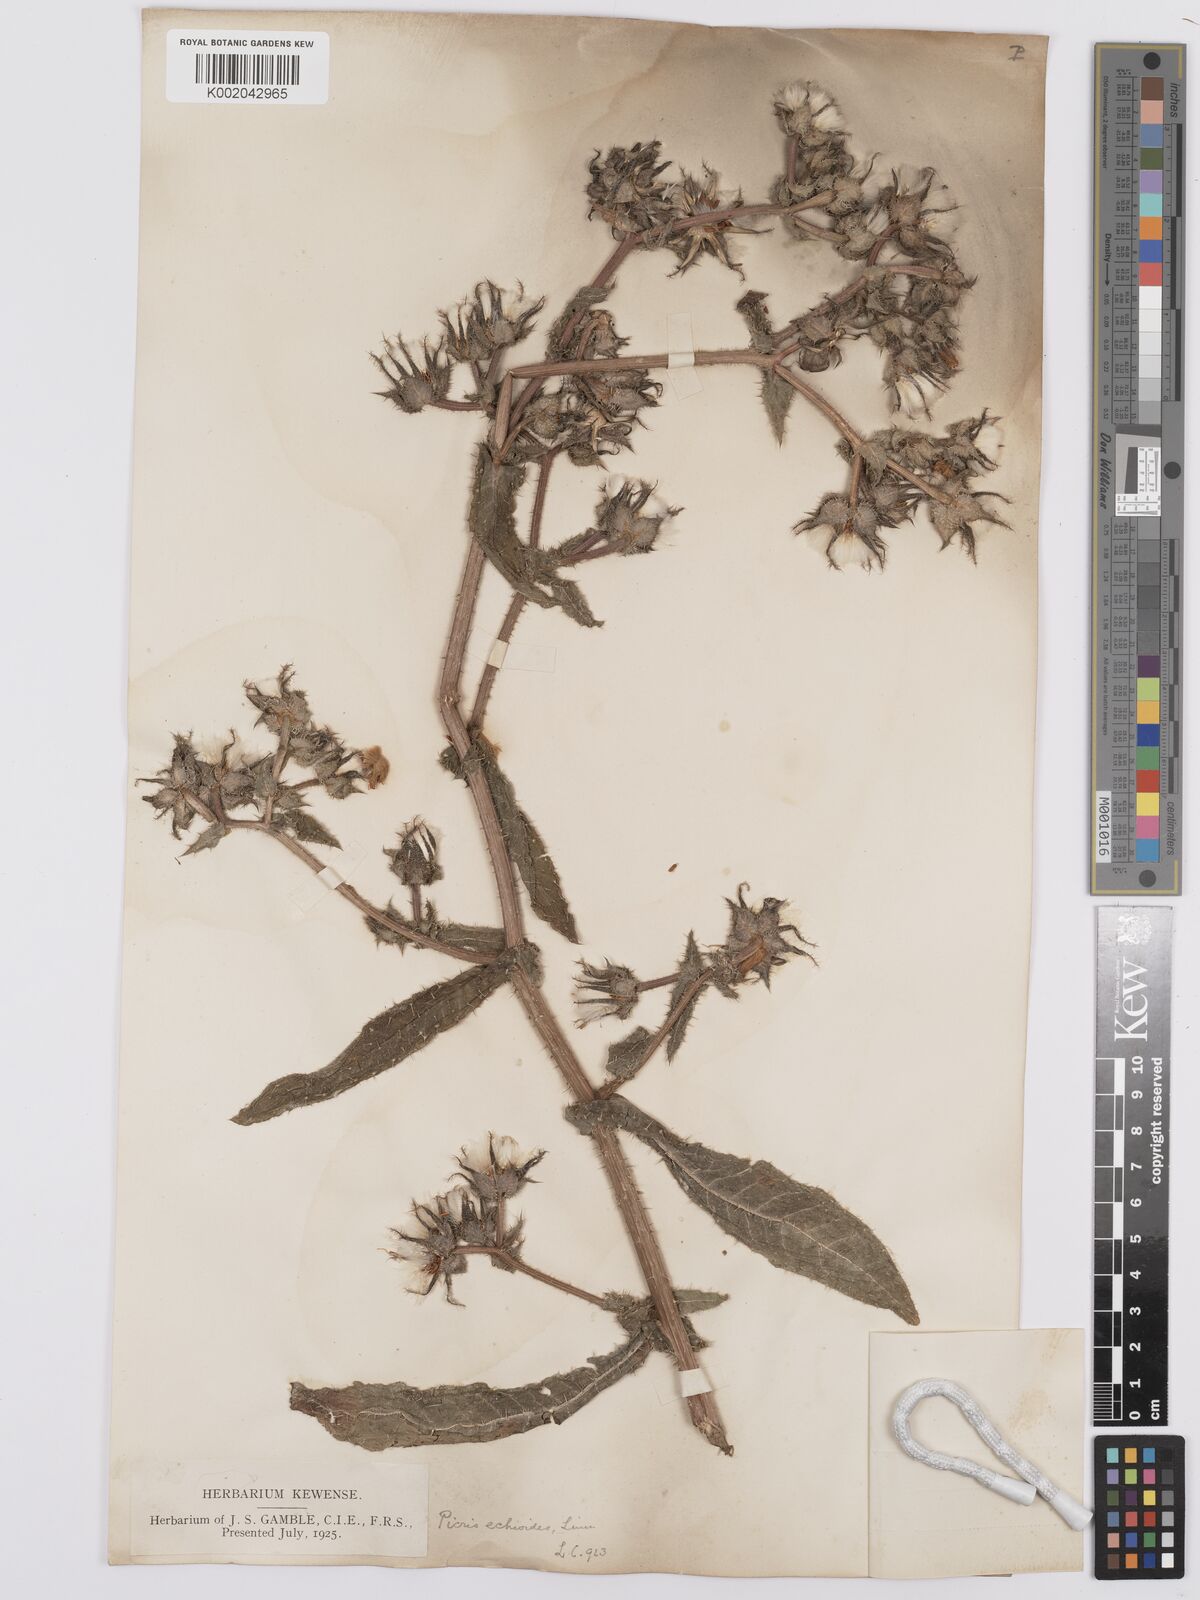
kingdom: Plantae
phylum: Tracheophyta
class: Magnoliopsida
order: Asterales
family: Asteraceae
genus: Helminthotheca
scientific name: Helminthotheca echioides
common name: Ox-tongue
